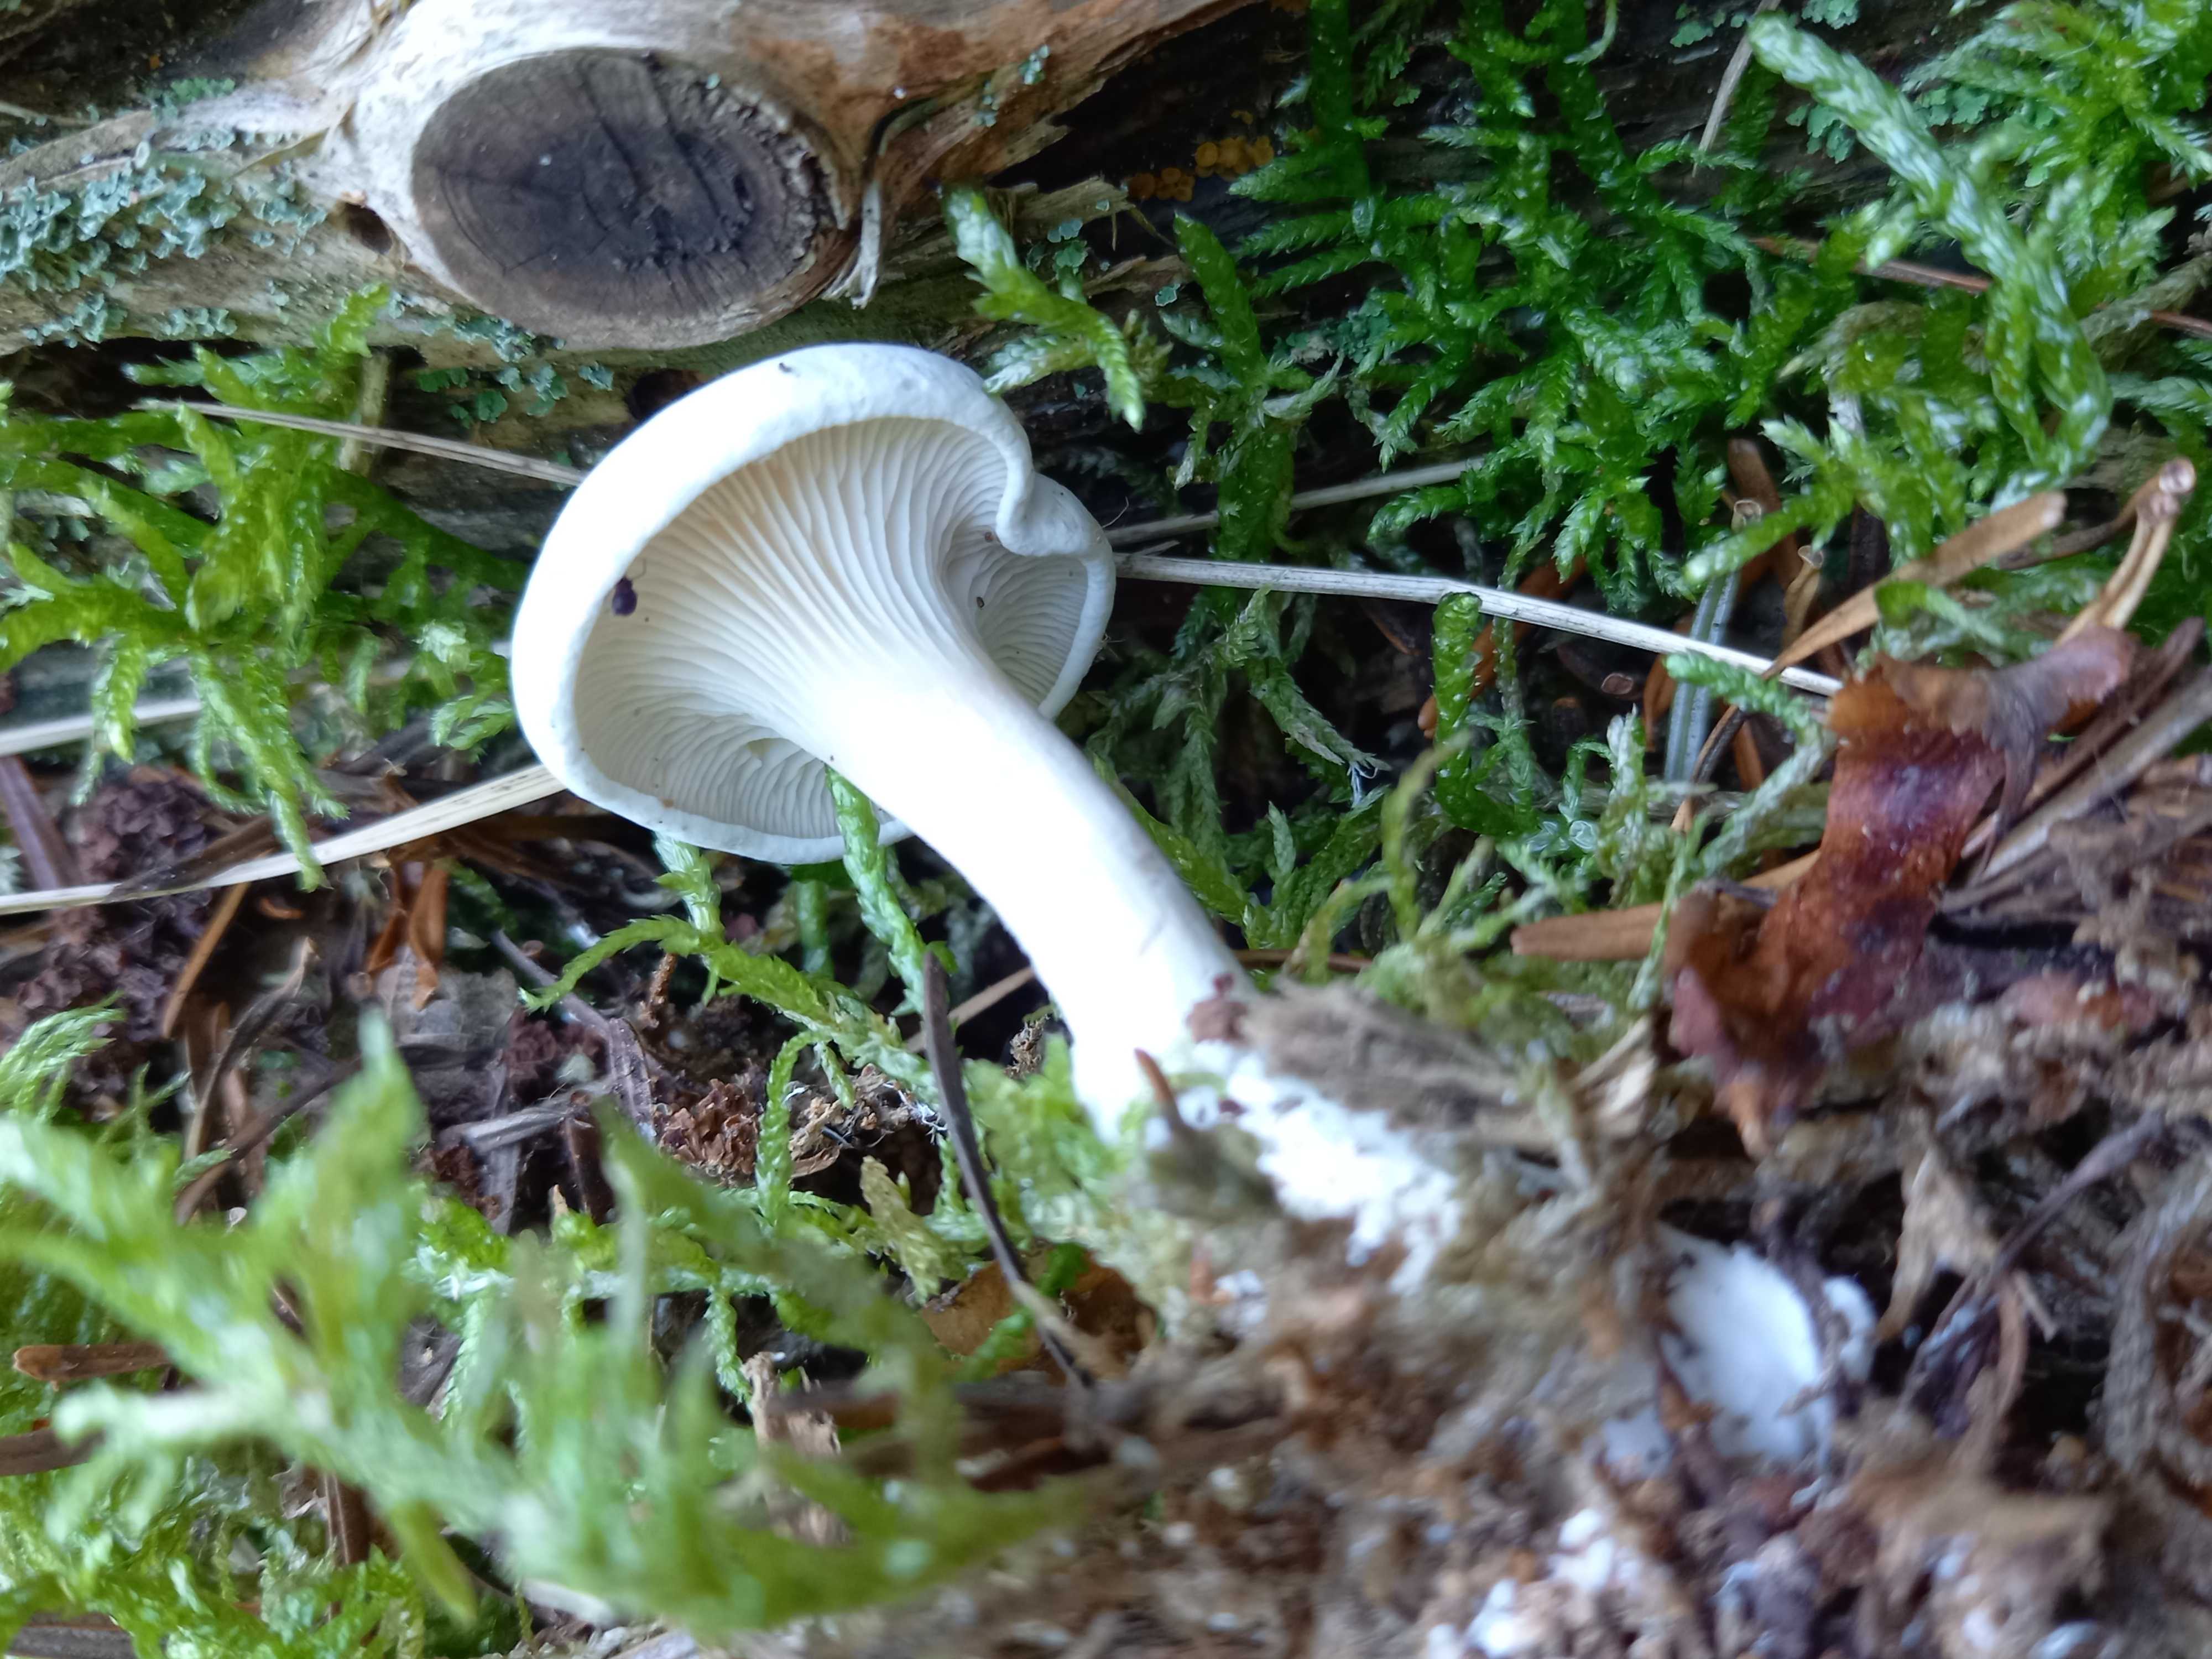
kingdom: Fungi
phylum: Basidiomycota
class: Agaricomycetes
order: Agaricales
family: Entolomataceae
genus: Clitopilus
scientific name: Clitopilus prunulus
